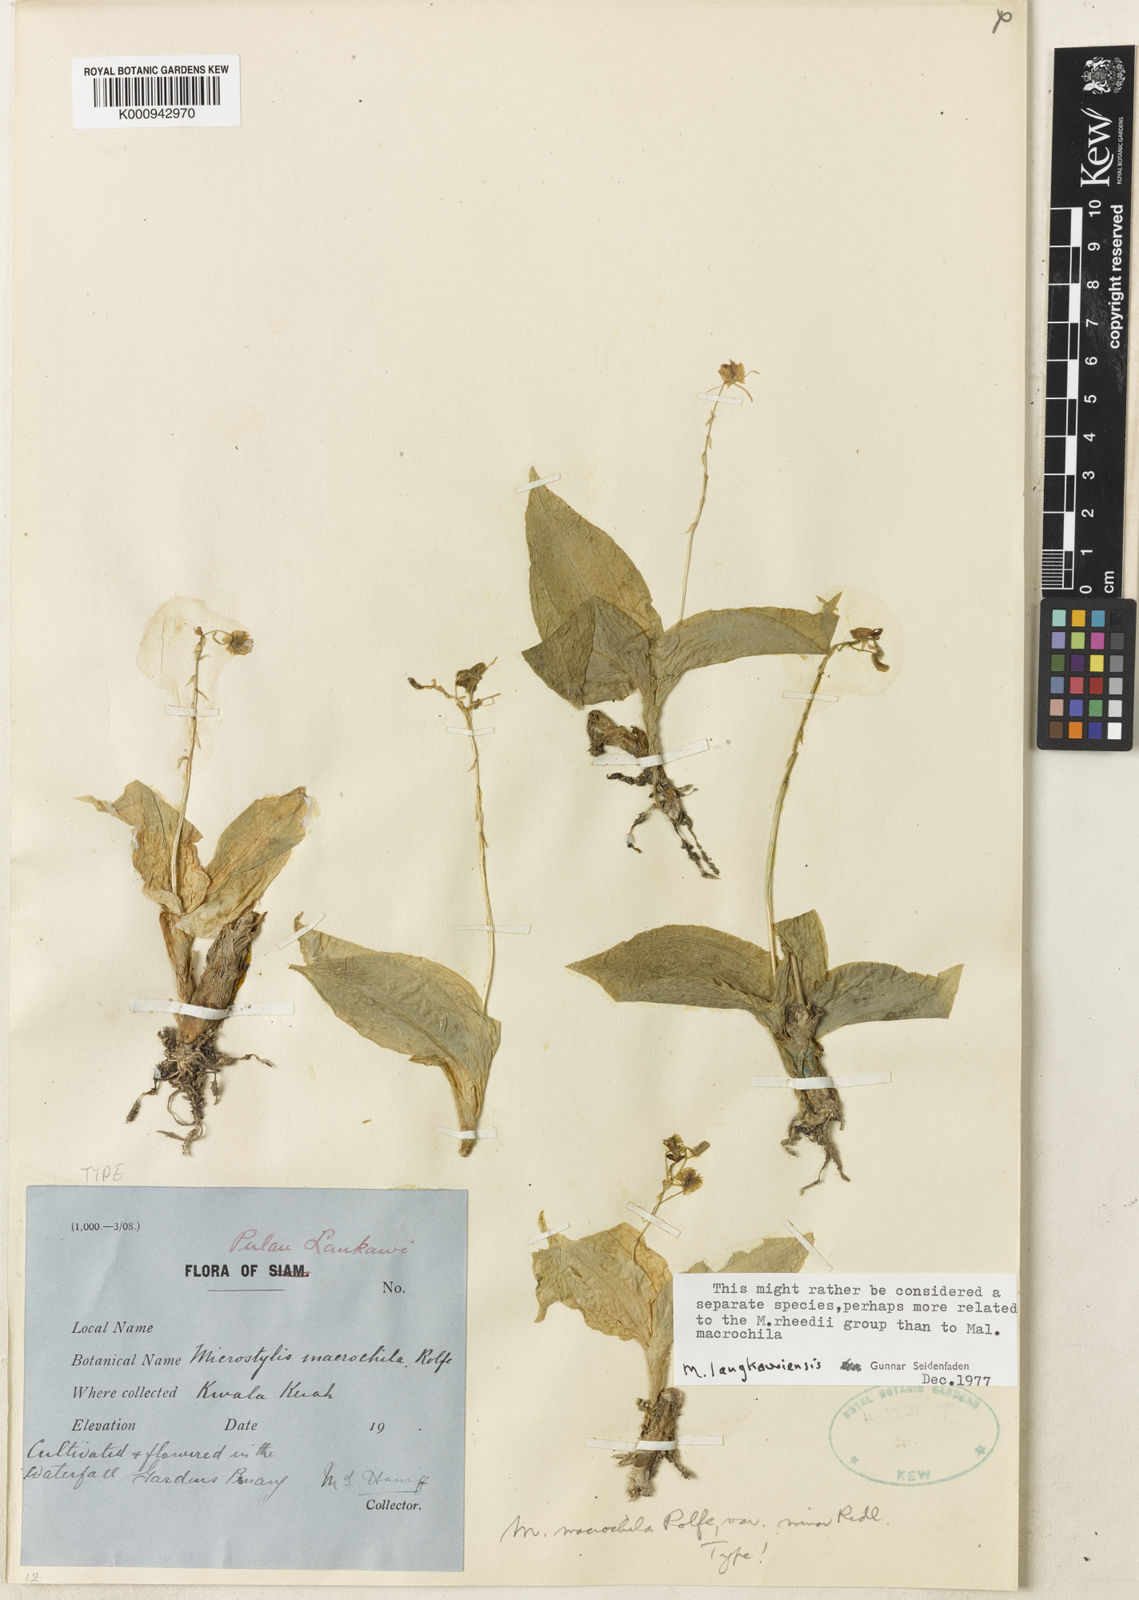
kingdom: Plantae
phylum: Tracheophyta
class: Liliopsida
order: Asparagales
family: Orchidaceae
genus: Crepidium
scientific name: Crepidium macrochilum
